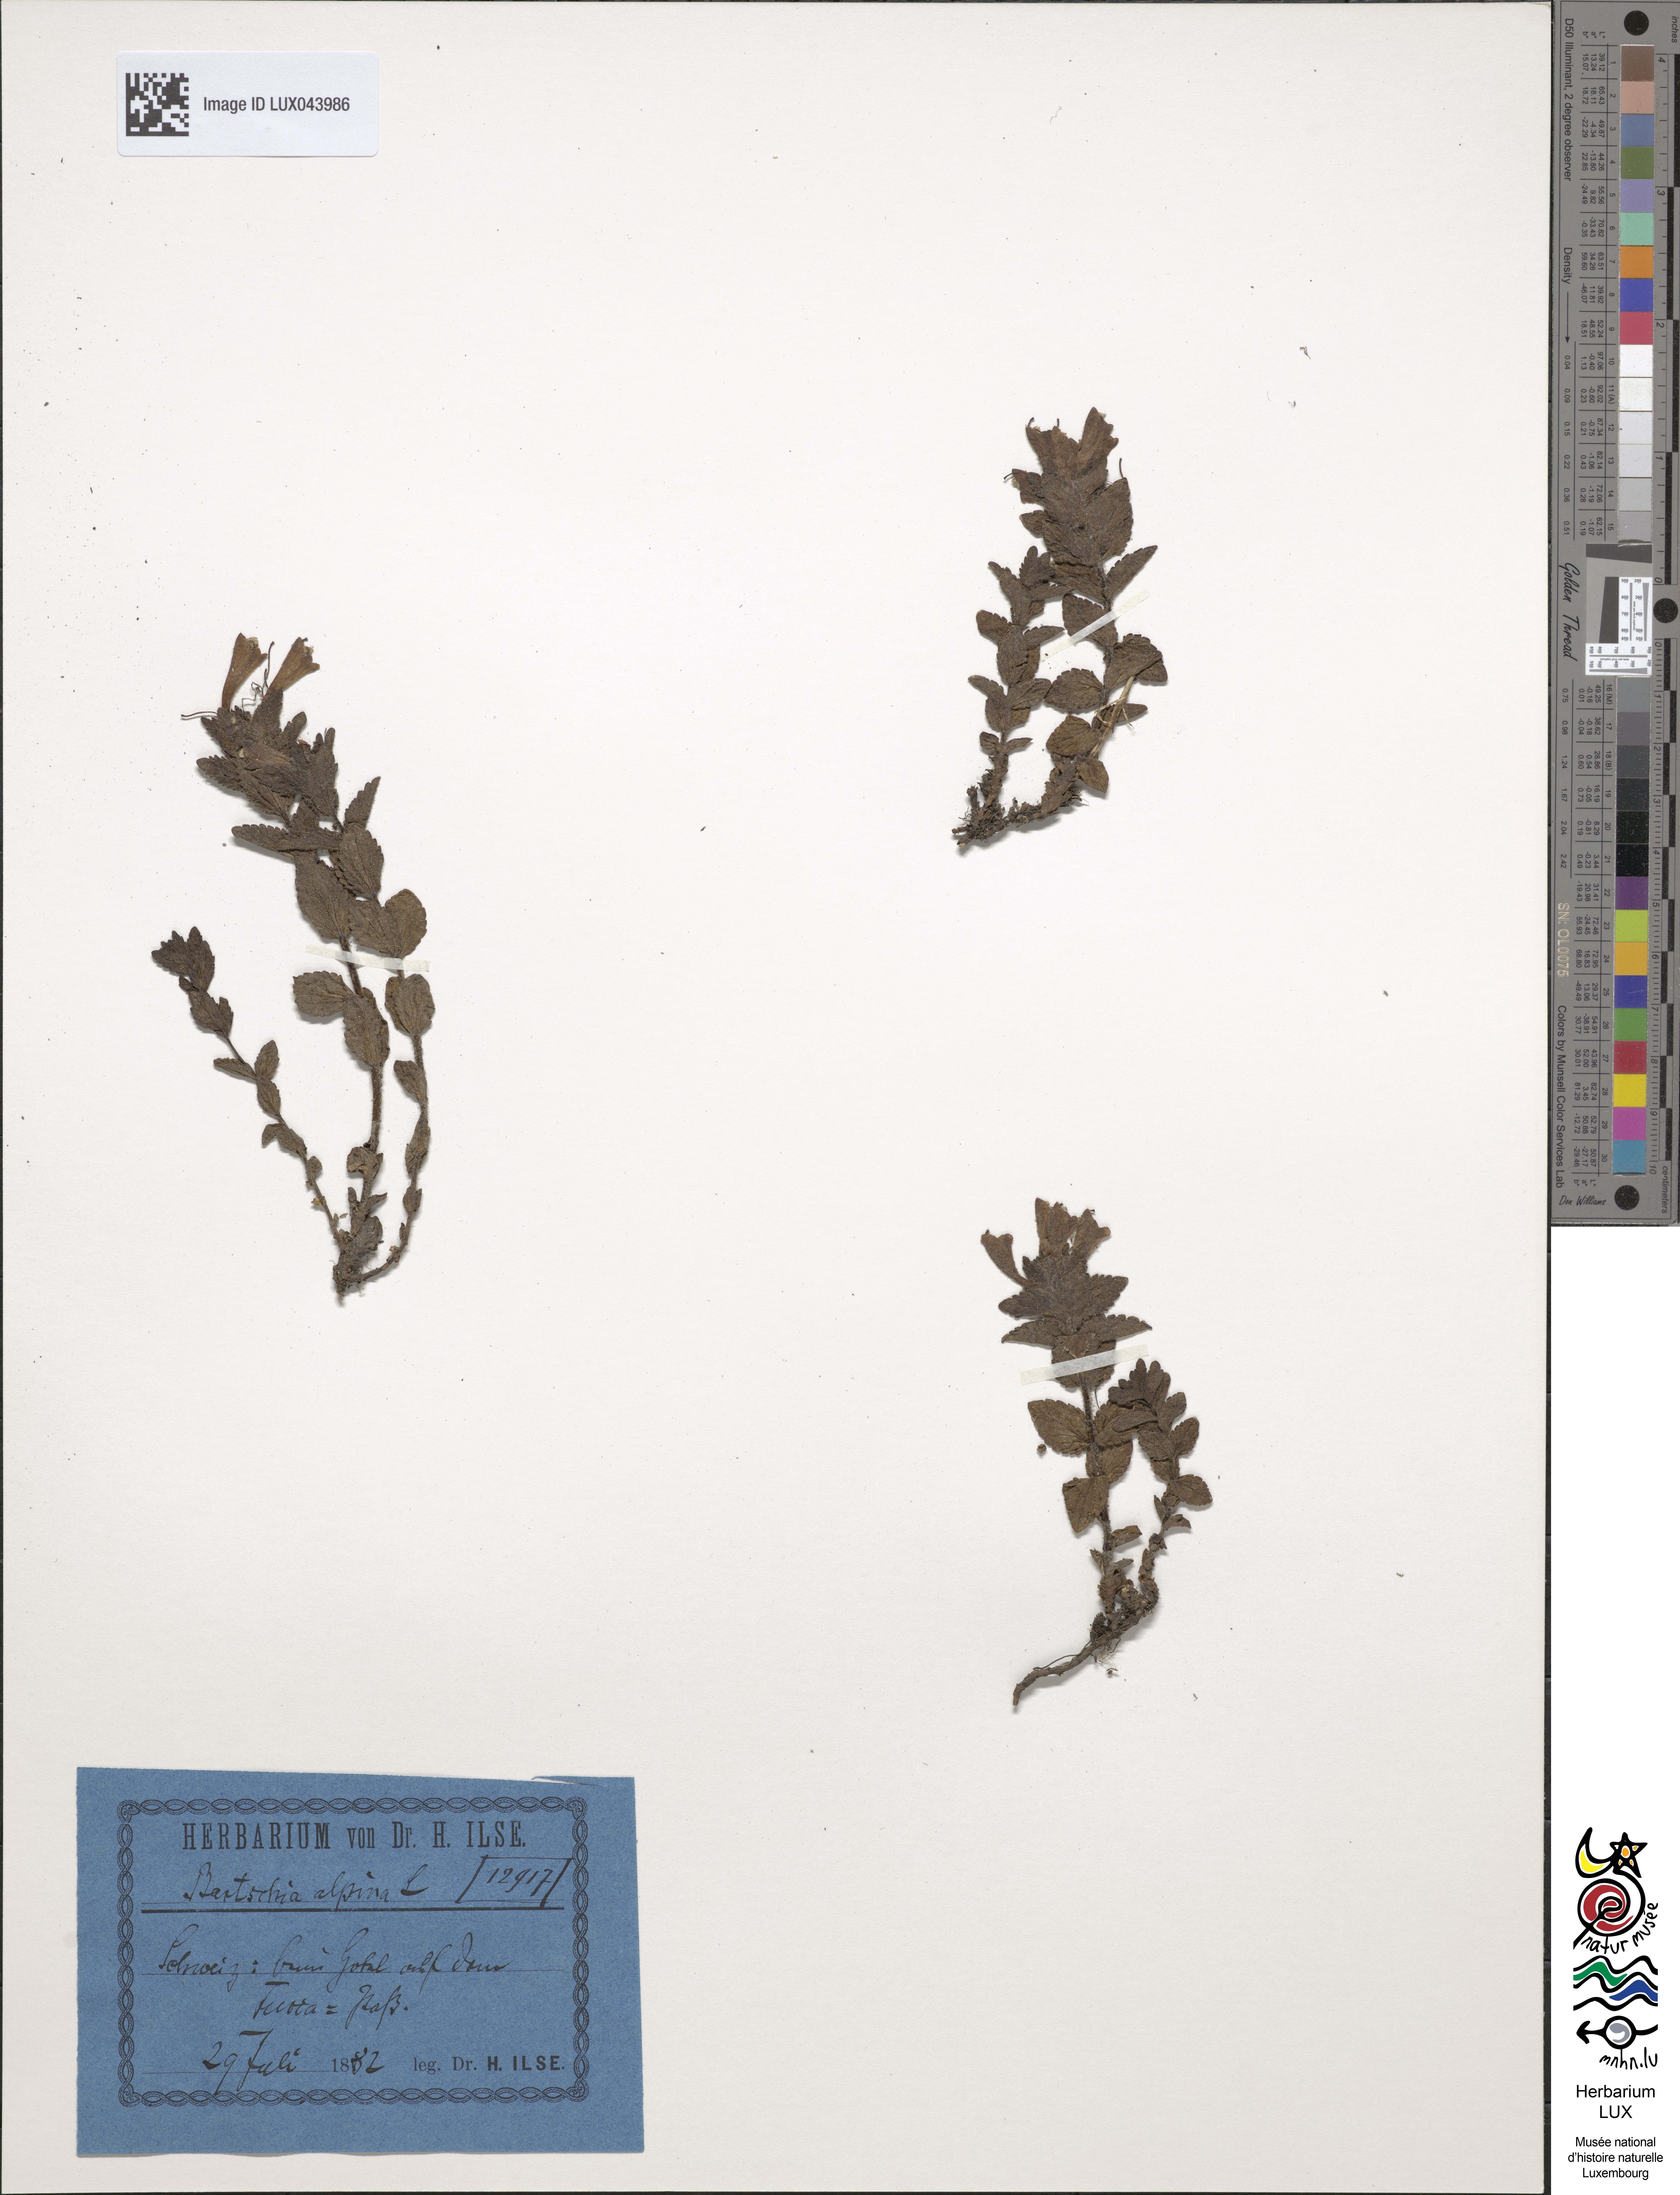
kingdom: Plantae
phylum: Tracheophyta
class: Magnoliopsida
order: Lamiales
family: Orobanchaceae
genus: Bartsia
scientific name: Bartsia alpina
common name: Alpine bartsia
